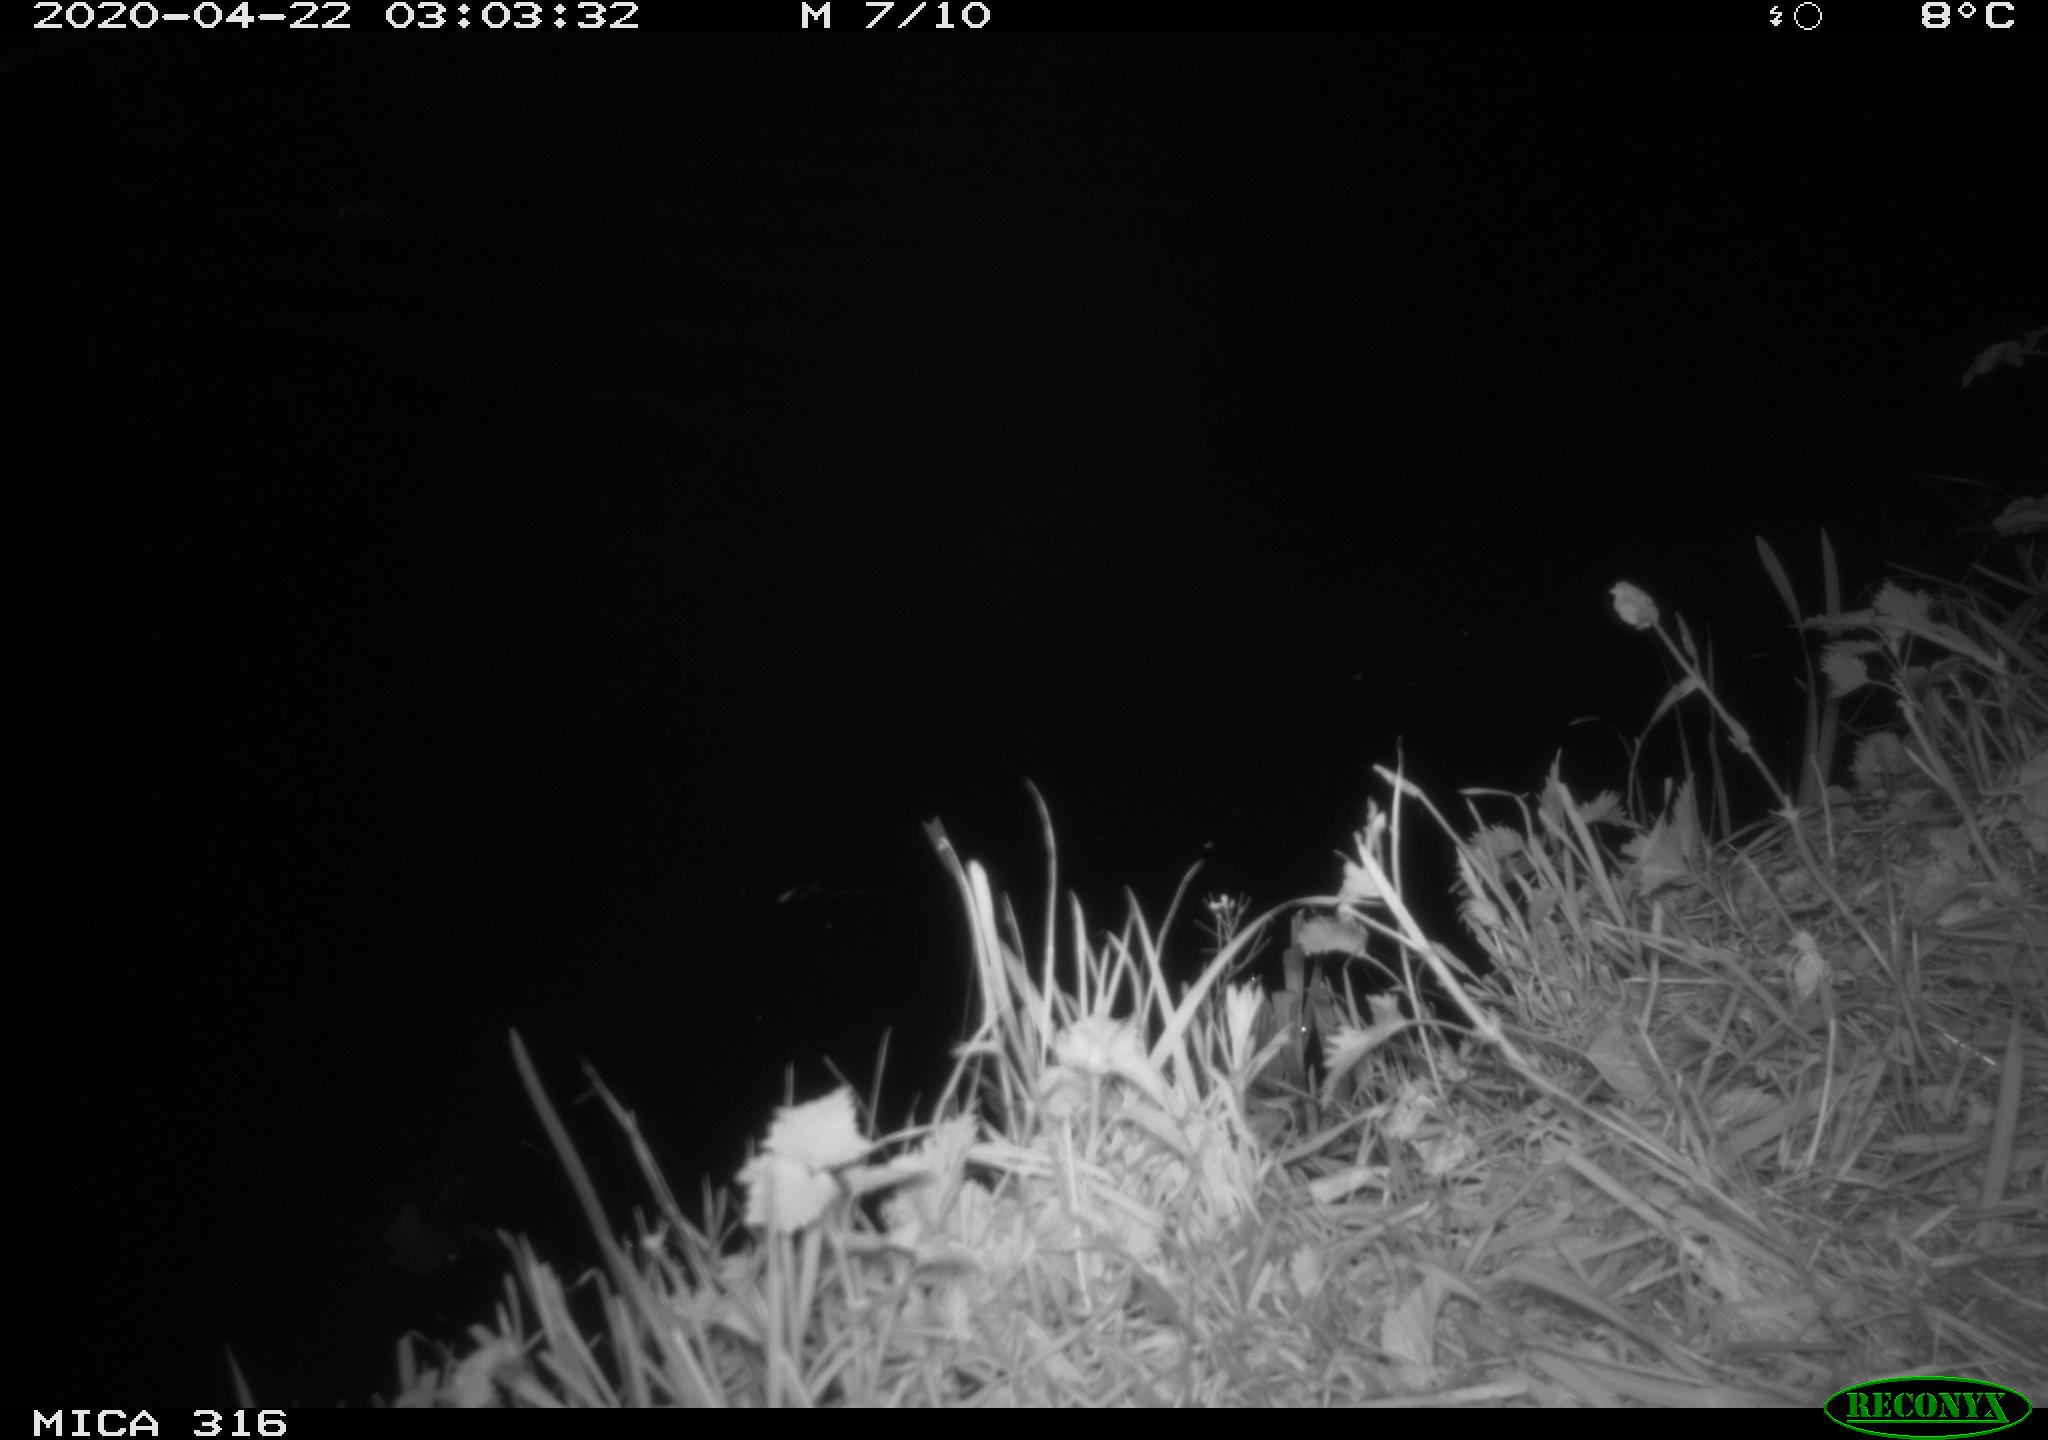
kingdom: Animalia
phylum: Chordata
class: Aves
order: Anseriformes
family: Anatidae
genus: Anas
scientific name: Anas platyrhynchos
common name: Mallard
